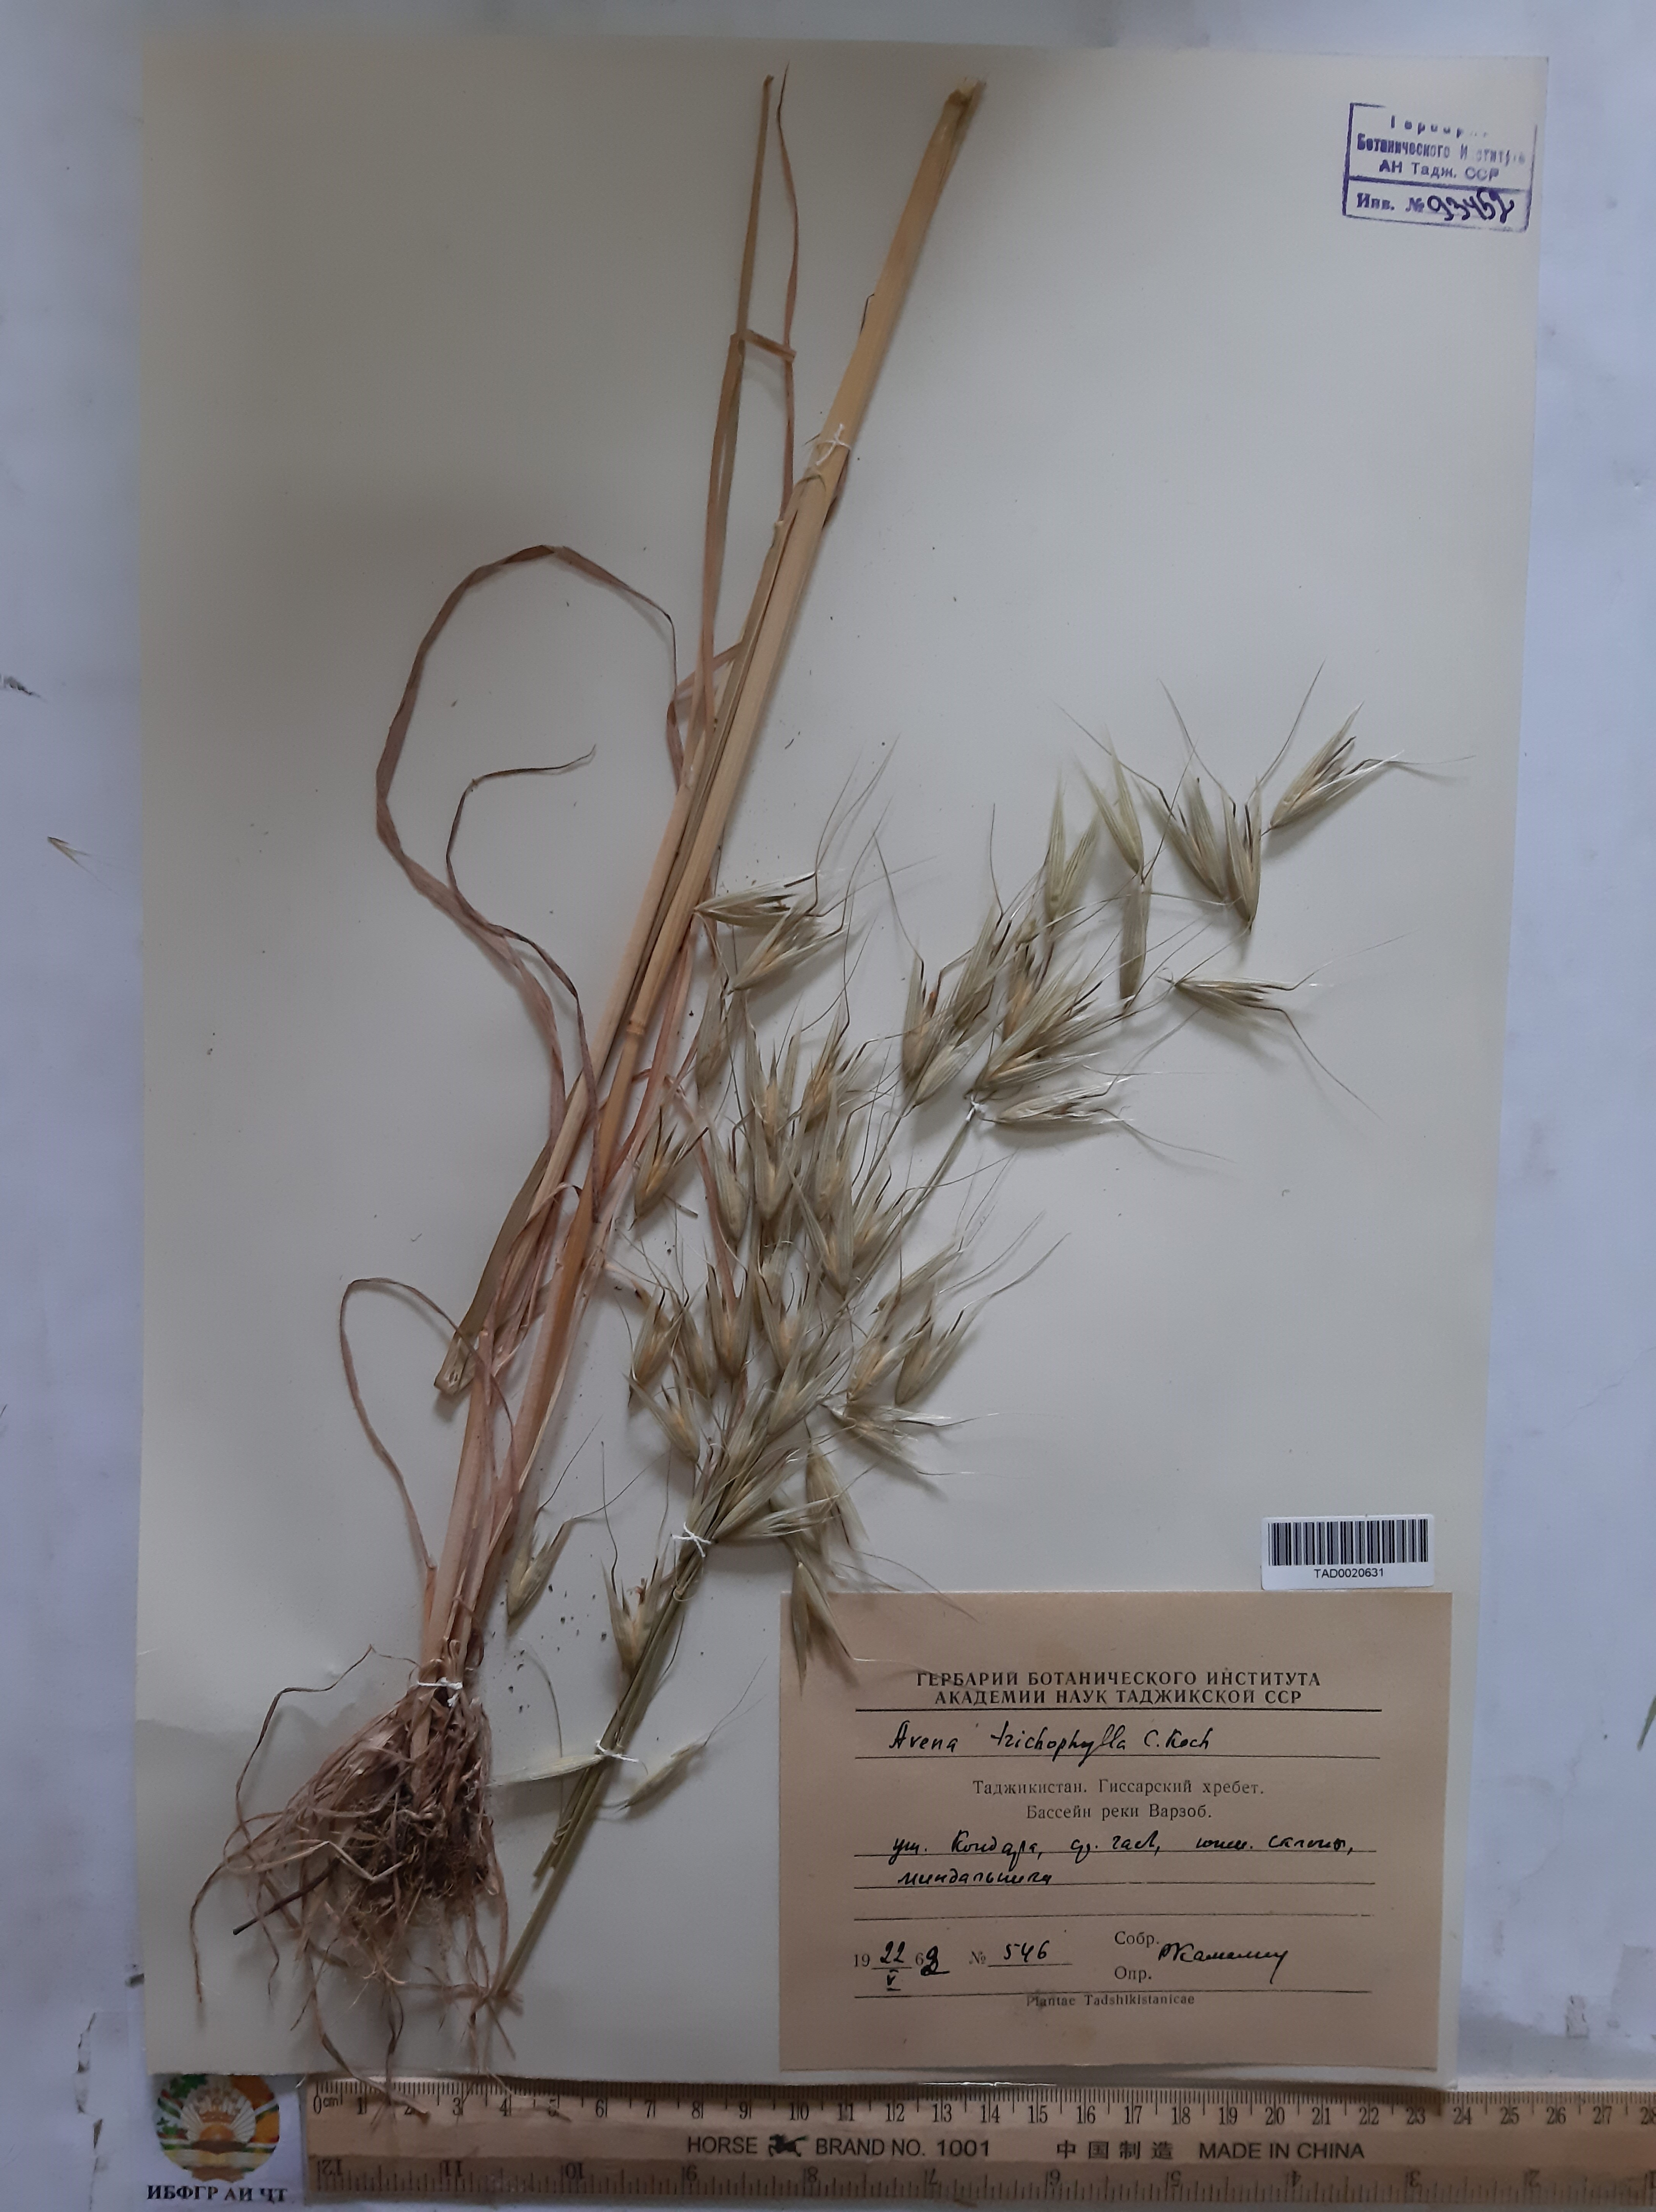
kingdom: Plantae
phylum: Tracheophyta
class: Liliopsida
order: Poales
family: Poaceae
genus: Avena
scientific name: Avena sterilis
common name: Animated oat
